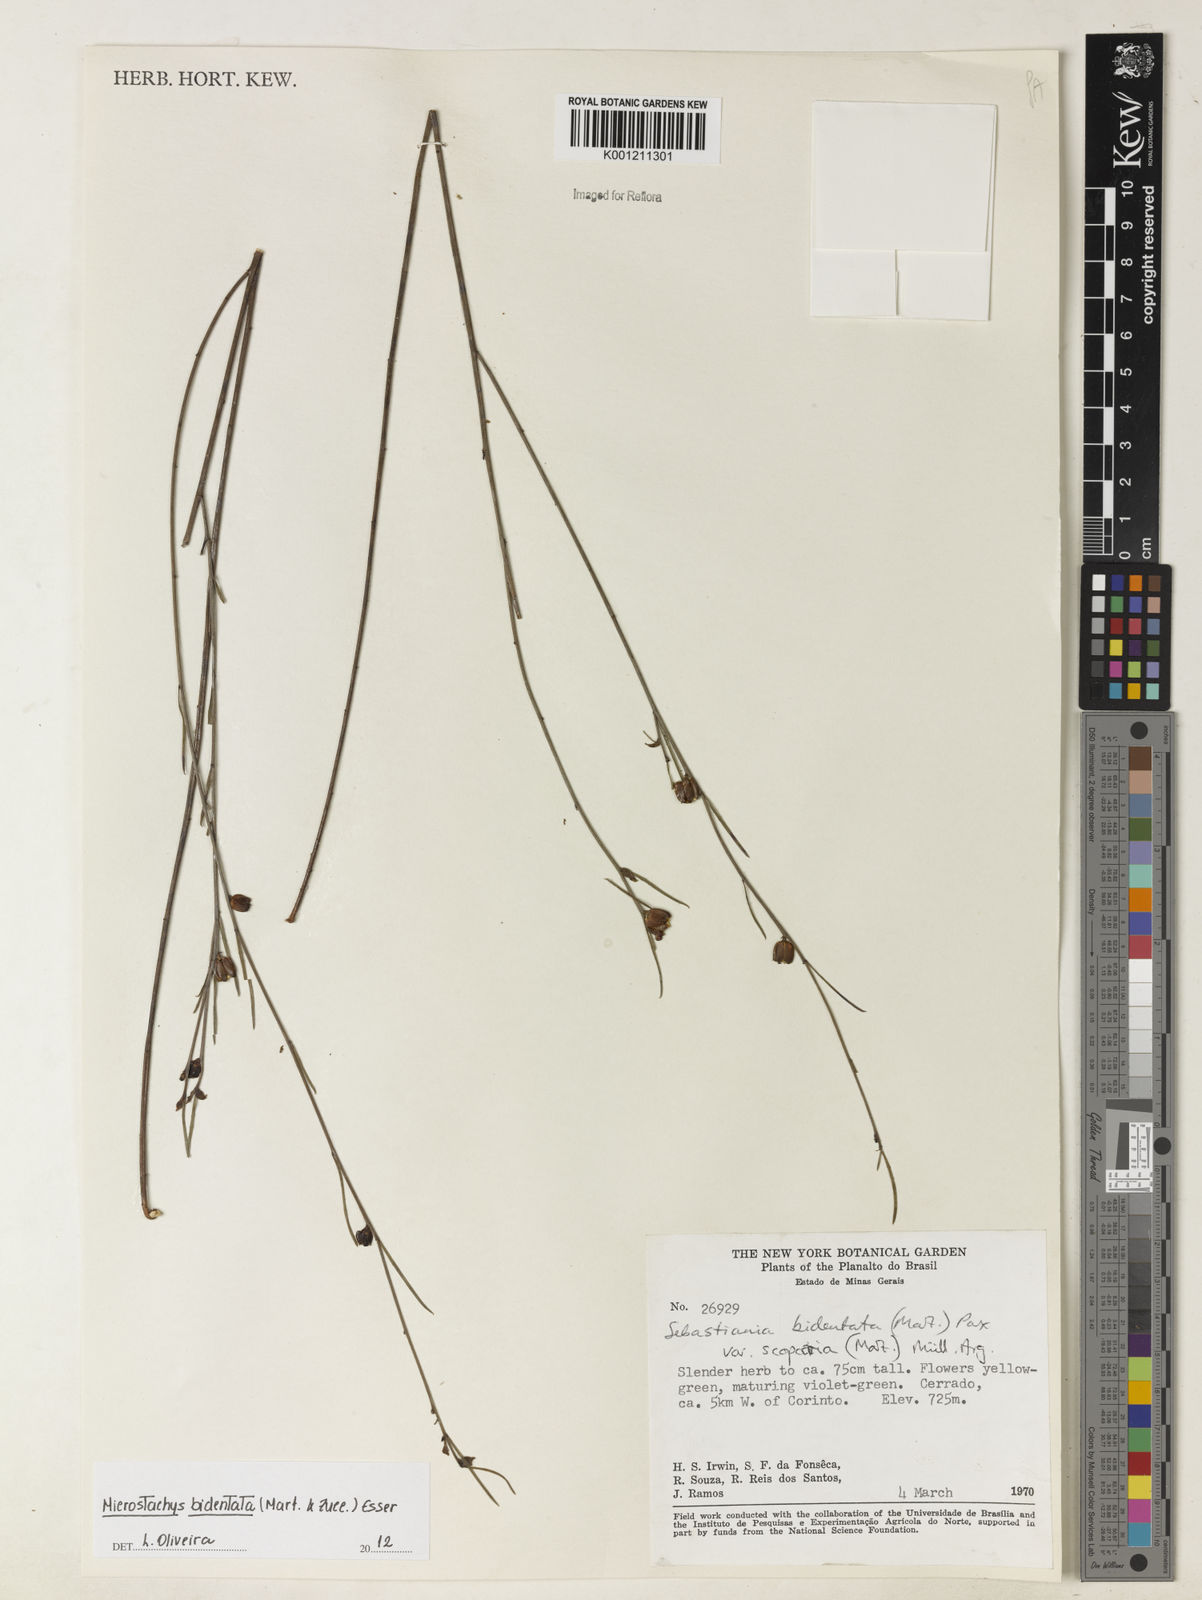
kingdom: Plantae
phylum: Tracheophyta
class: Magnoliopsida
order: Malpighiales
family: Euphorbiaceae
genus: Microstachys
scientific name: Microstachys bidentata
